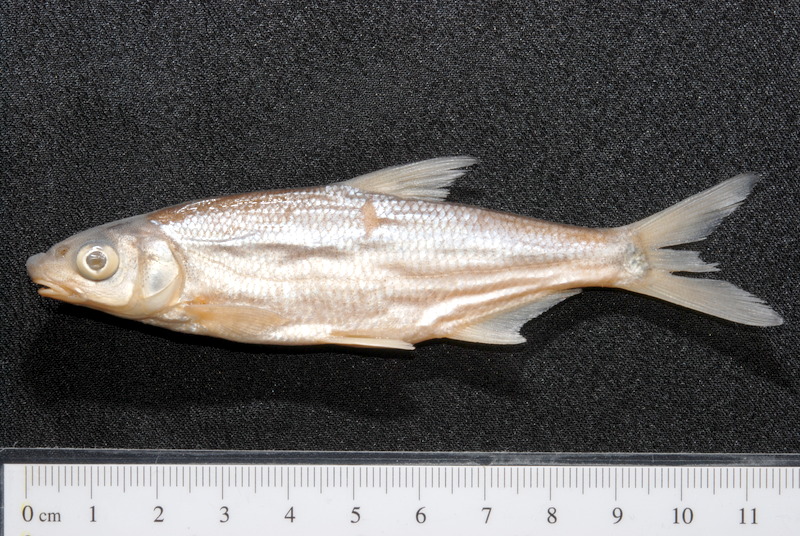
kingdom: Animalia
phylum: Chordata
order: Cypriniformes
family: Cyprinidae
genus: Vimba
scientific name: Vimba vimba
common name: Vimba
